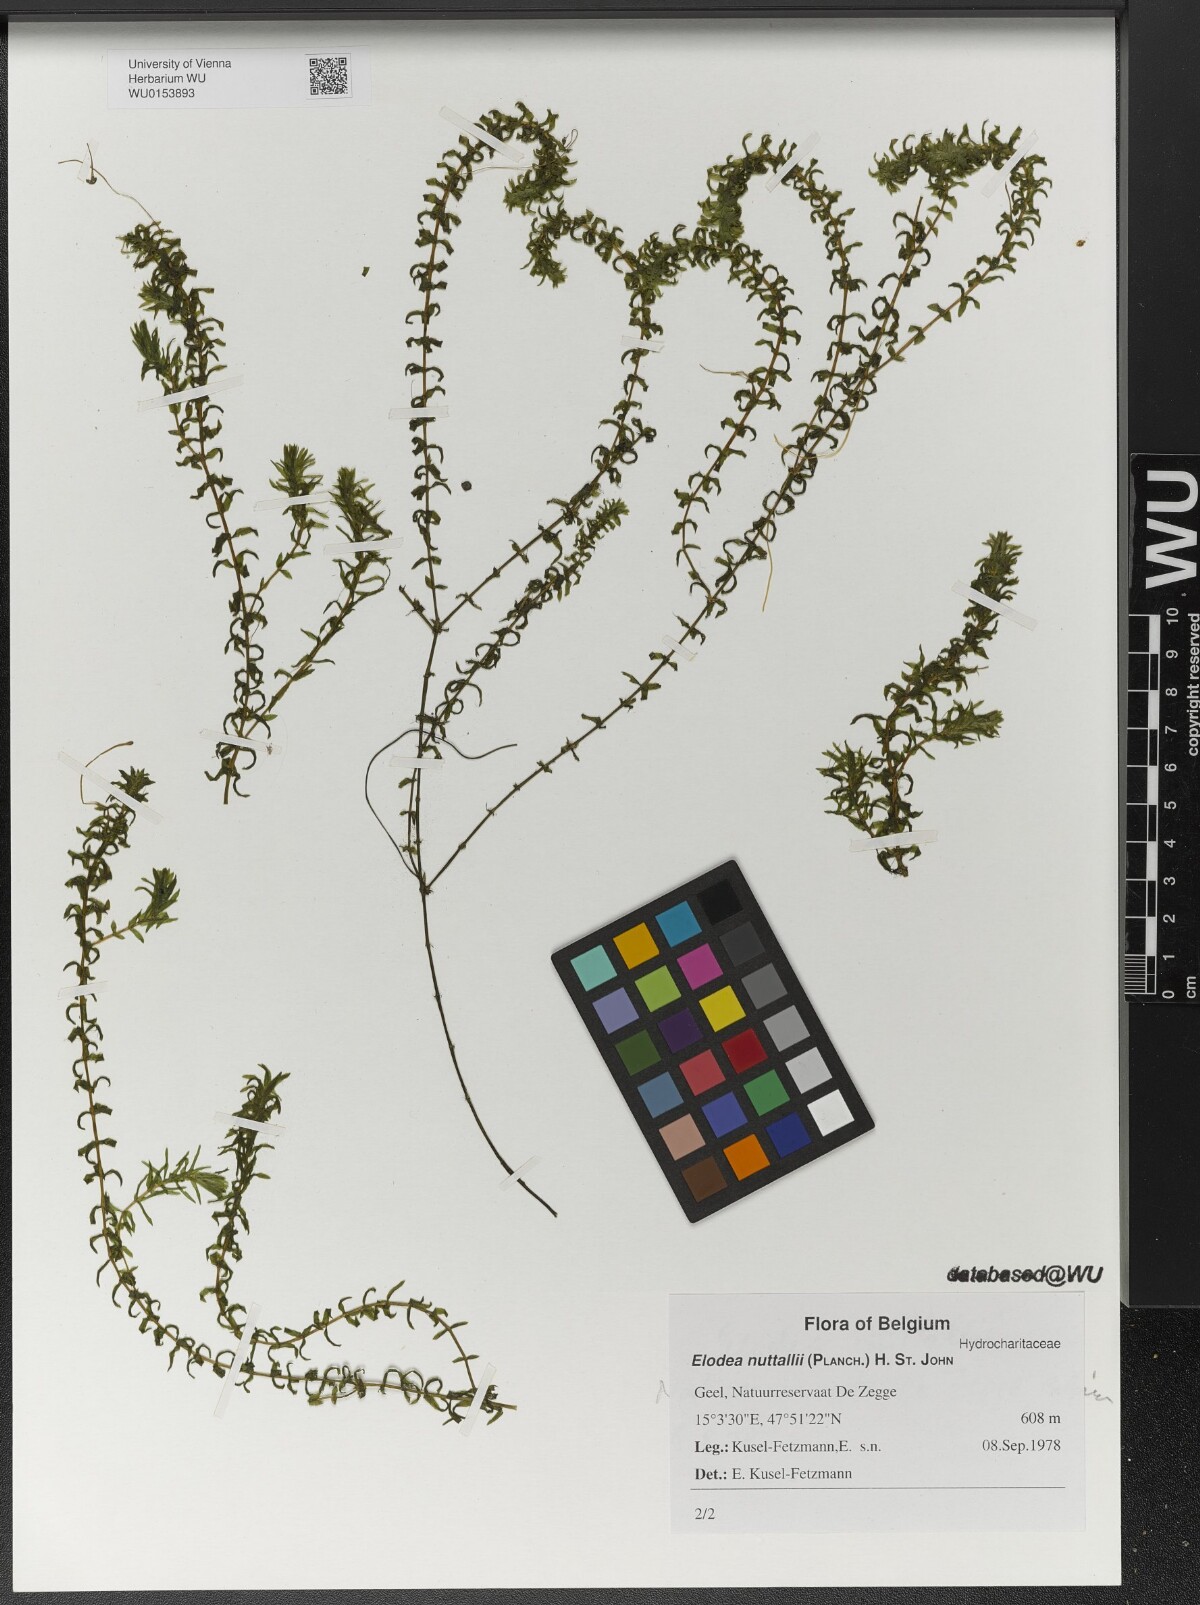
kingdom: Plantae
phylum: Tracheophyta
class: Liliopsida
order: Alismatales
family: Hydrocharitaceae
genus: Elodea
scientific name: Elodea nuttallii
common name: Nuttall's waterweed
